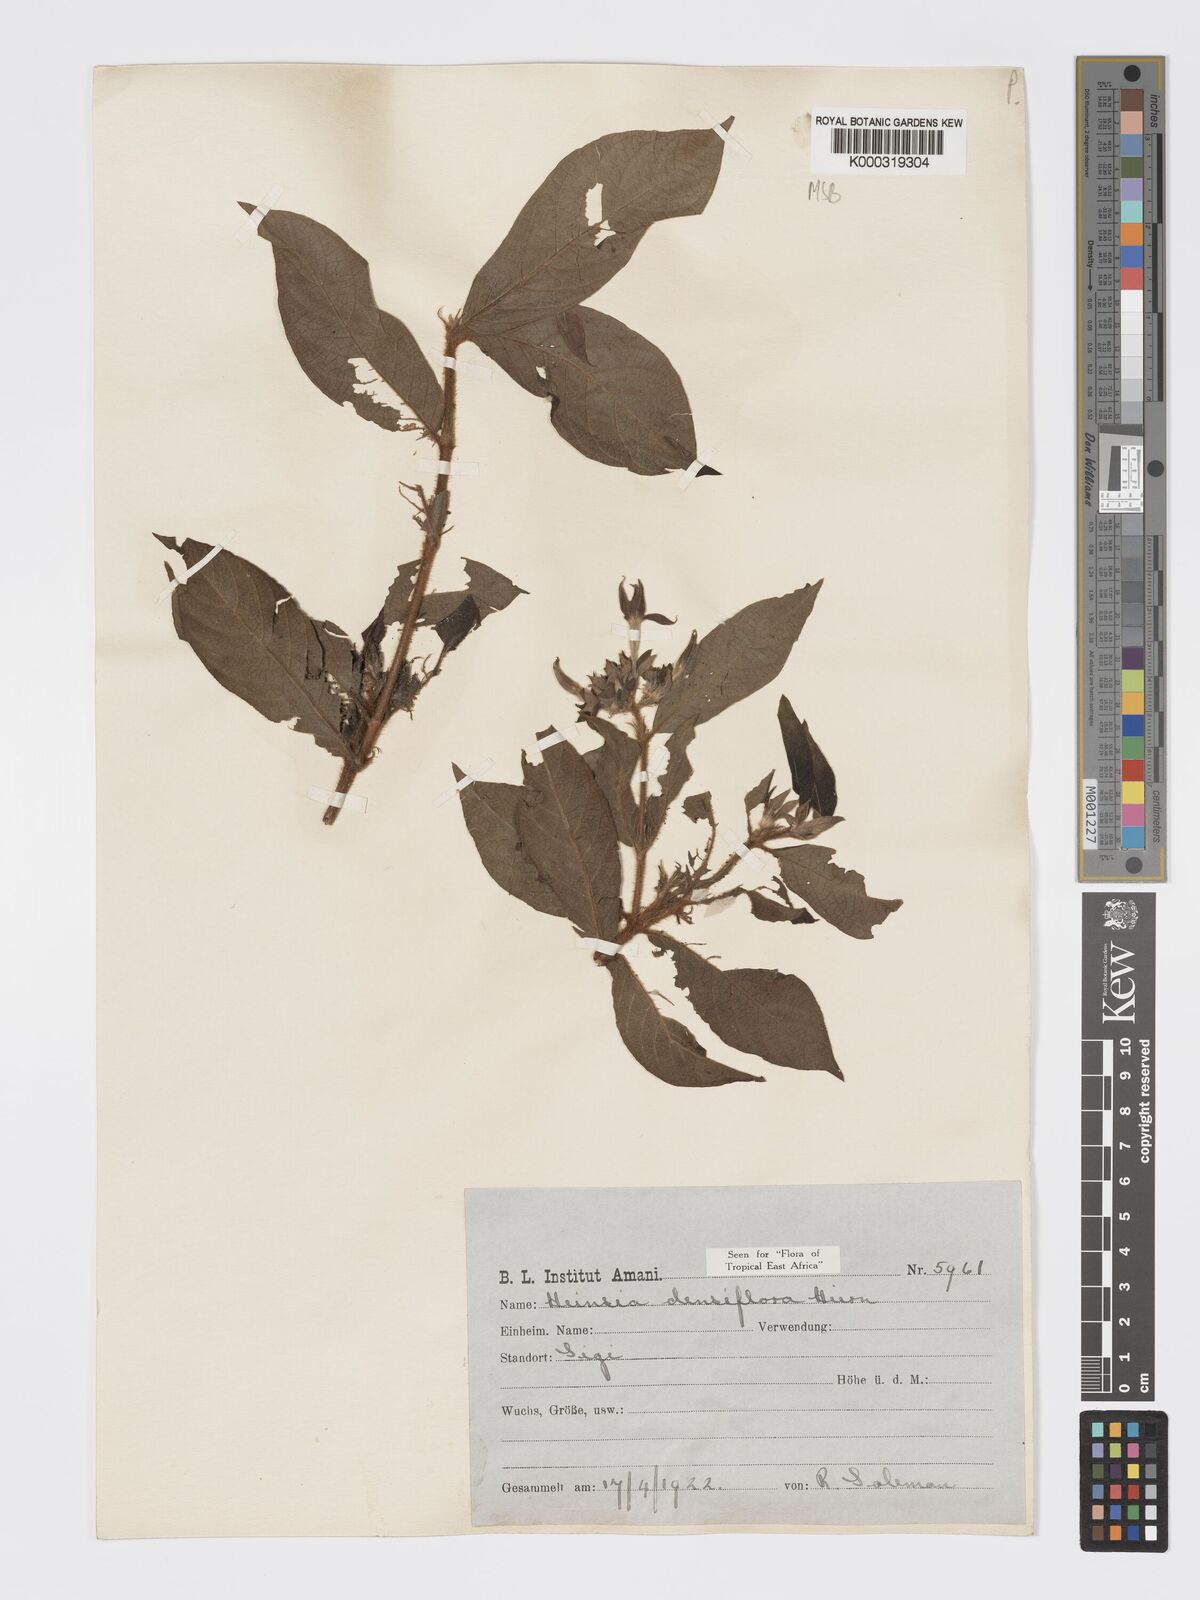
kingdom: Plantae
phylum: Tracheophyta
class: Magnoliopsida
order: Gentianales
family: Rubiaceae
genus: Heinsia
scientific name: Heinsia zanzibarica
